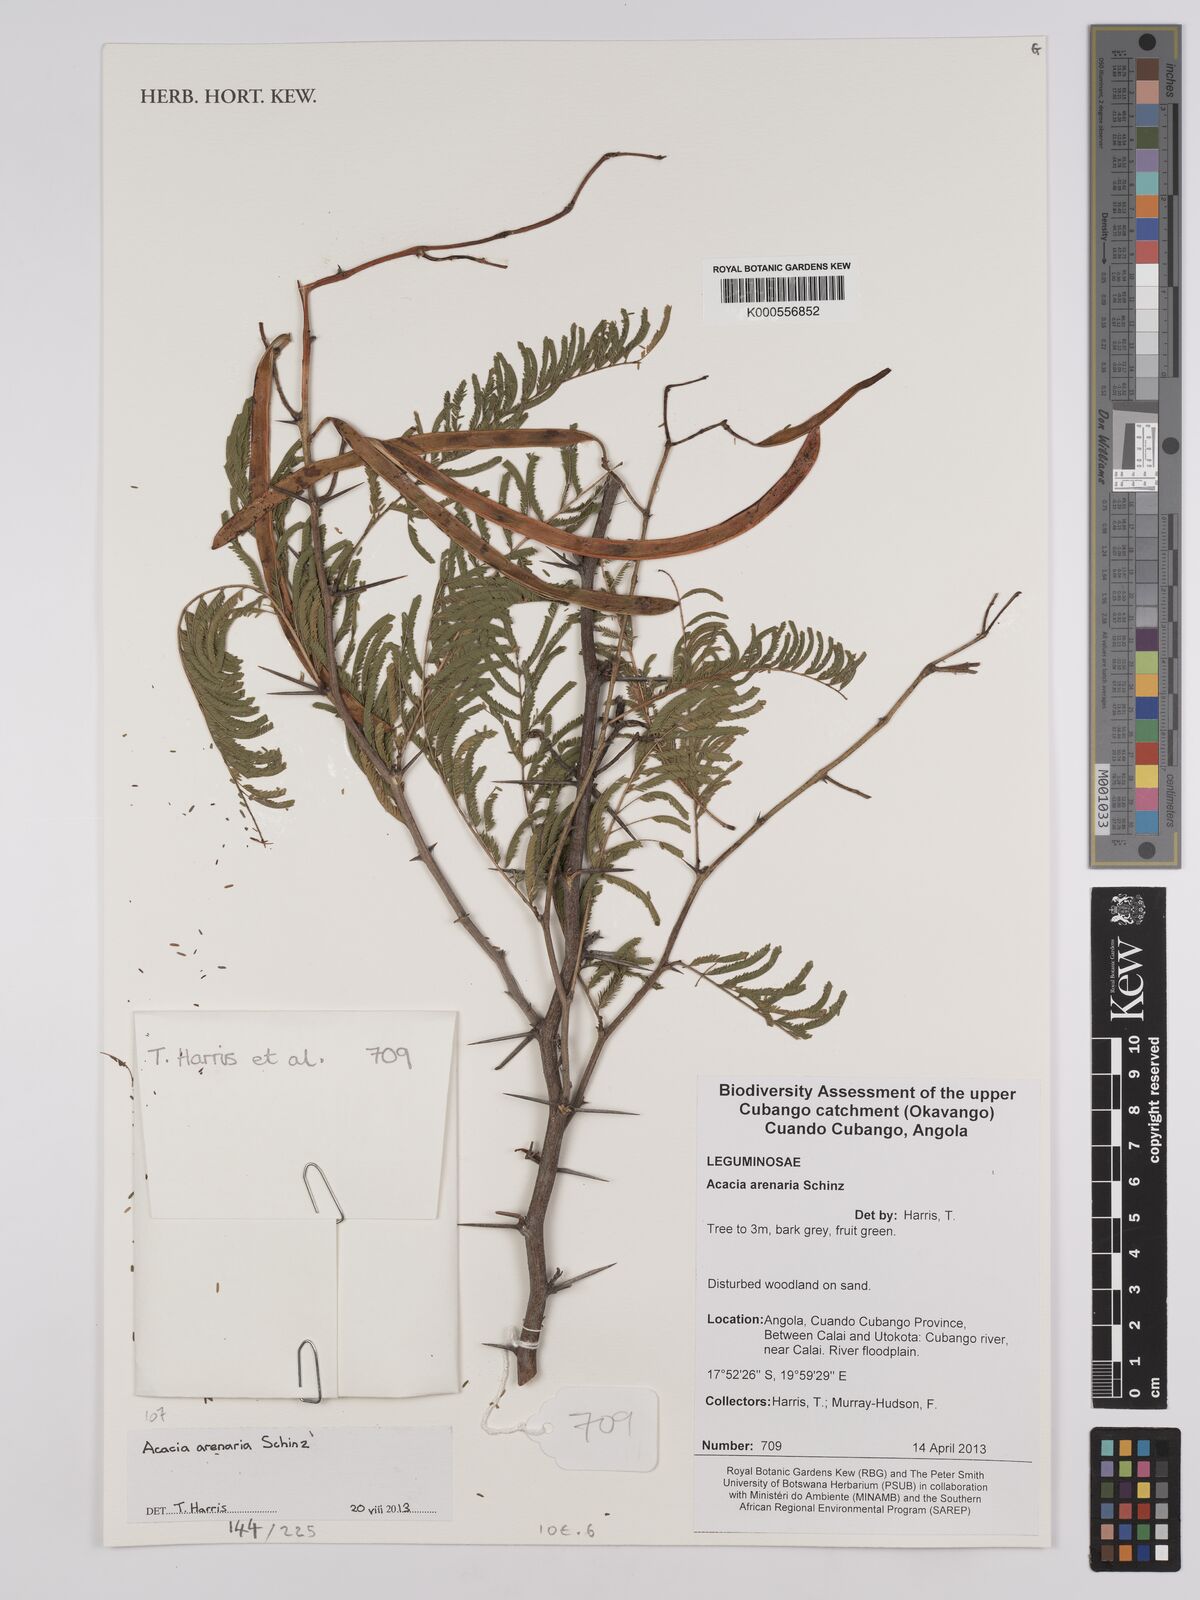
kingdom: Plantae
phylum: Tracheophyta
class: Magnoliopsida
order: Fabales
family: Fabaceae
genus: Vachellia
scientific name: Vachellia arenaria
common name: Sand acacia
